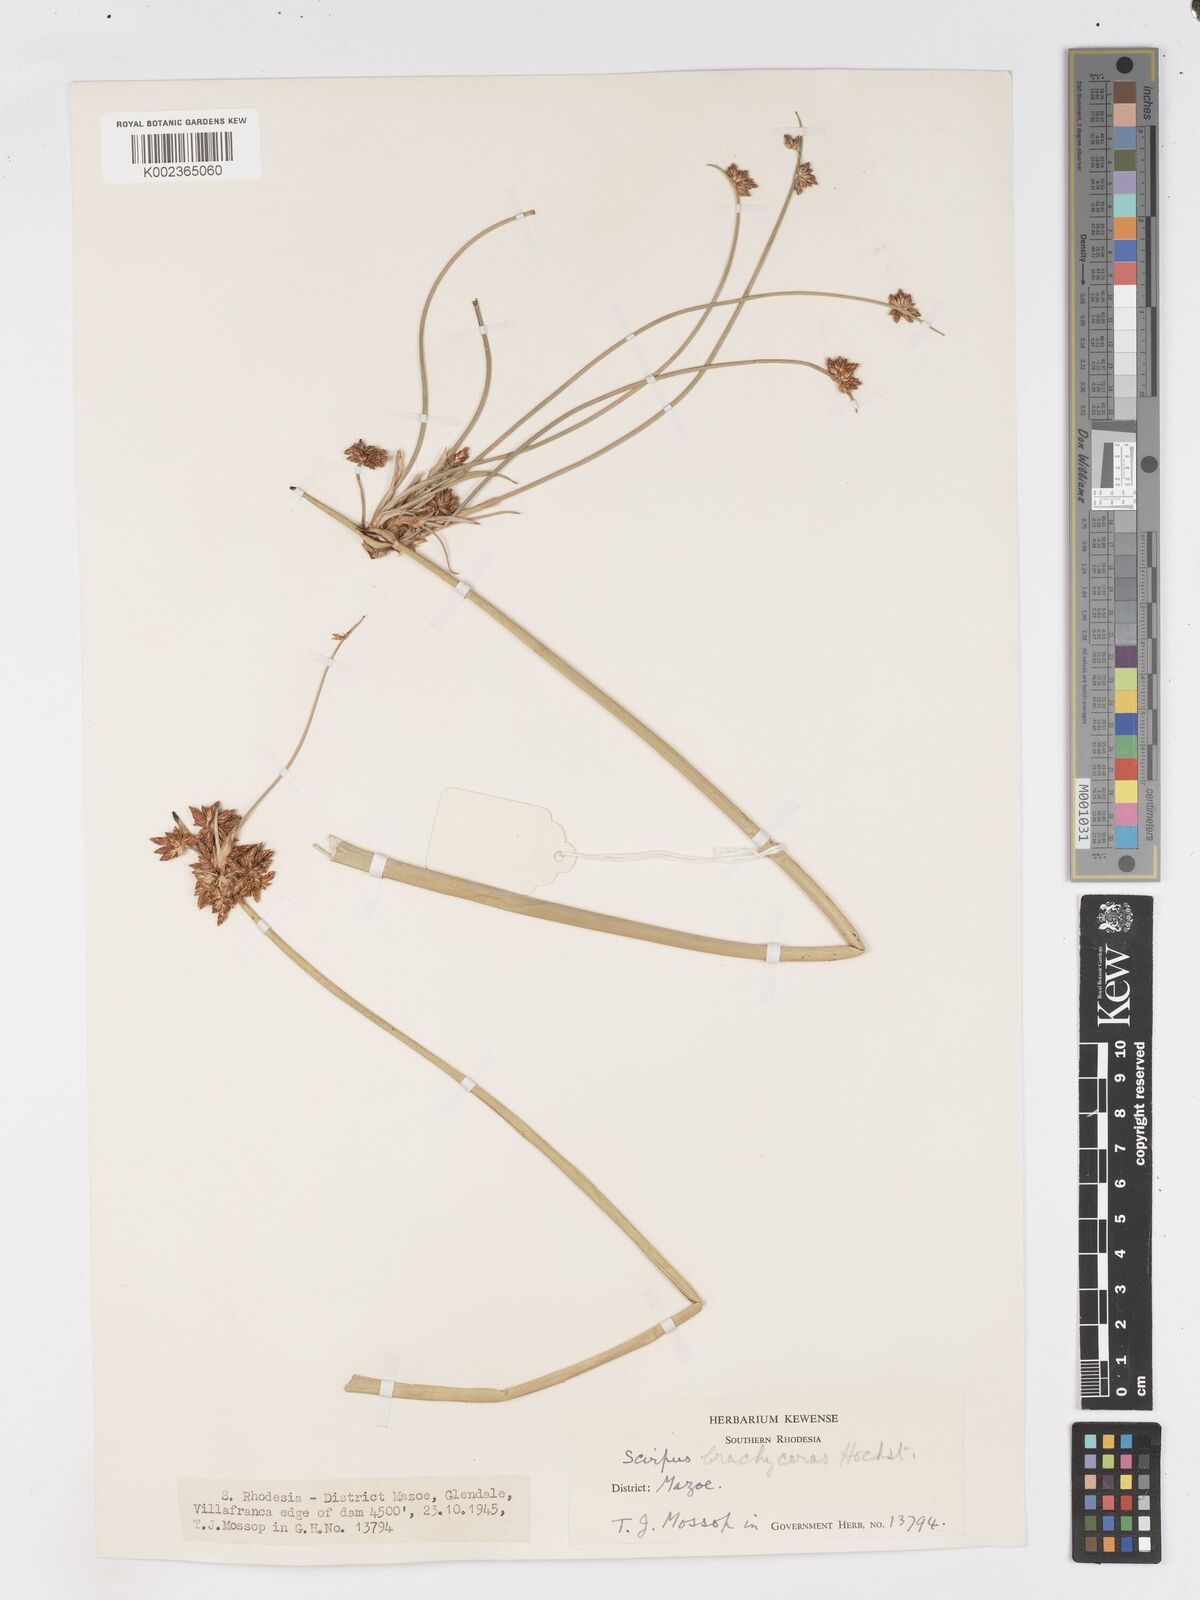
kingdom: Plantae
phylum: Tracheophyta
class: Liliopsida
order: Poales
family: Cyperaceae
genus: Schoenoplectiella
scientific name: Schoenoplectiella corymbosa
